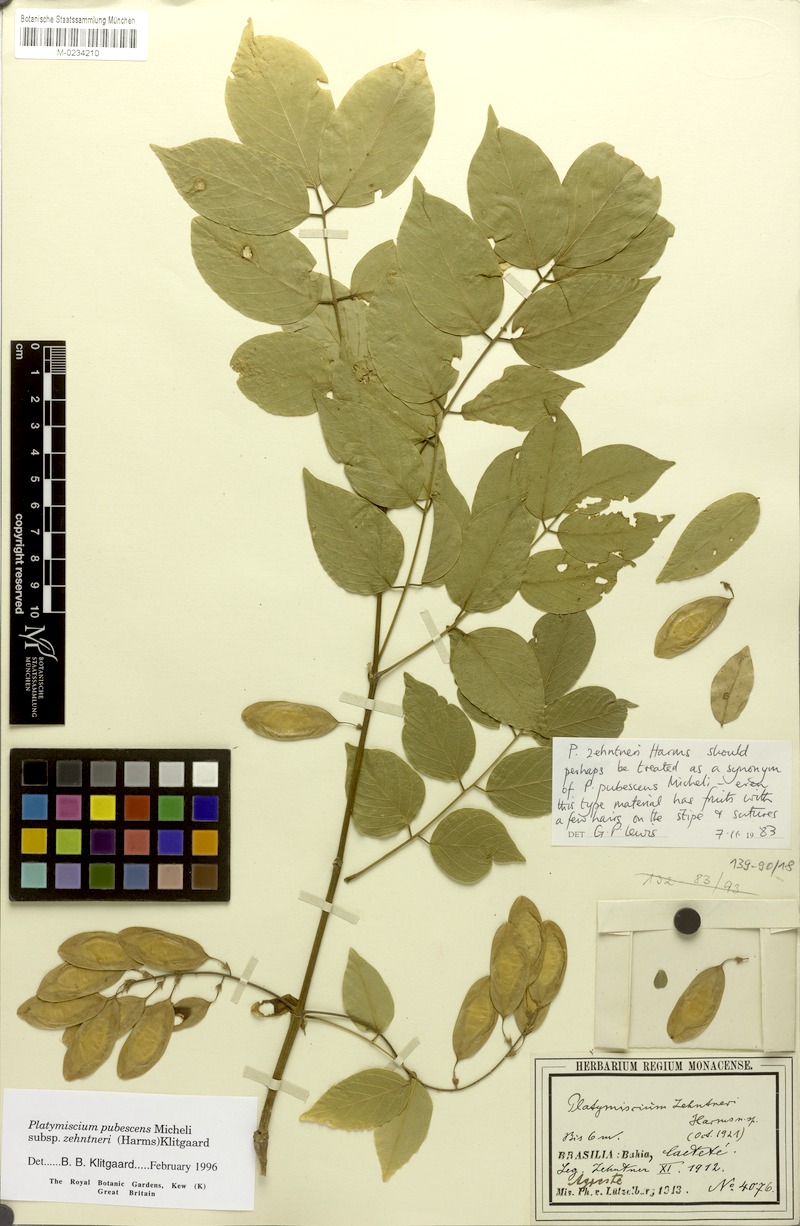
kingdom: Plantae
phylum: Tracheophyta
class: Magnoliopsida
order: Fabales
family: Fabaceae
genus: Platymiscium
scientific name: Platymiscium pubescens
